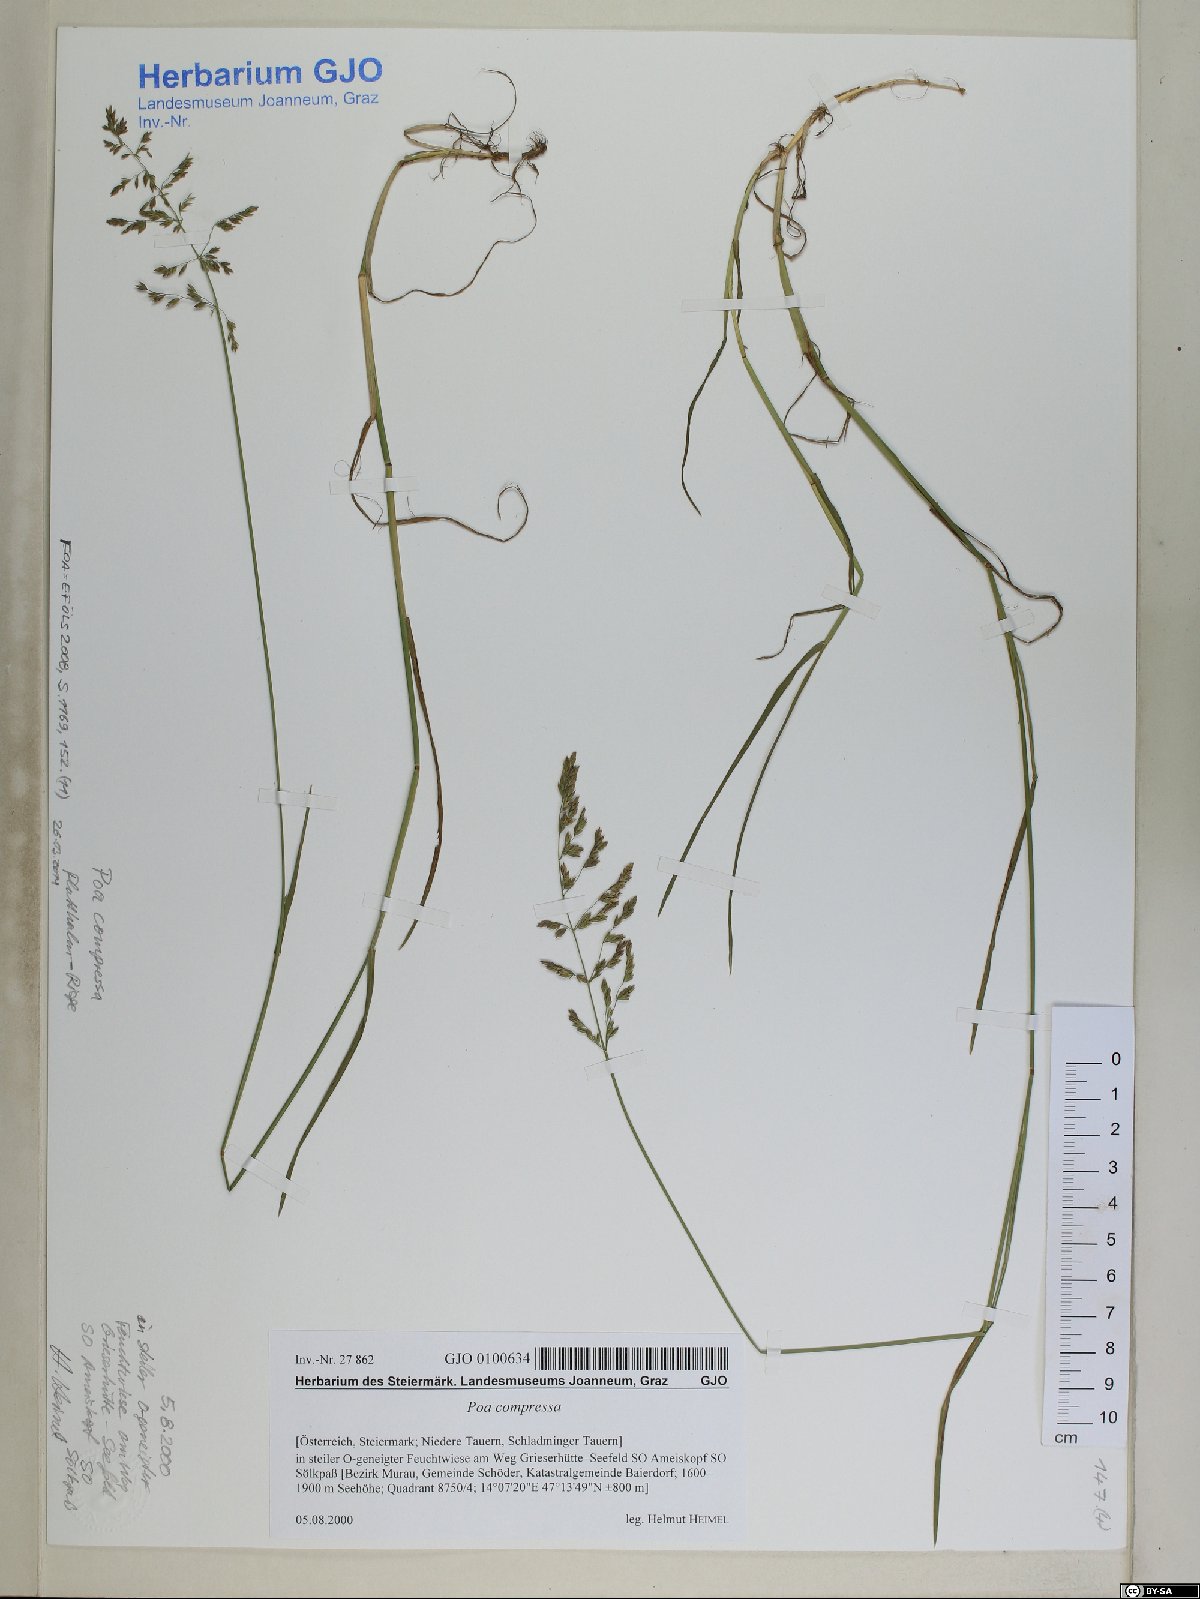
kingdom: Plantae
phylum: Tracheophyta
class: Liliopsida
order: Poales
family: Poaceae
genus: Poa
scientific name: Poa compressa
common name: Canada bluegrass
